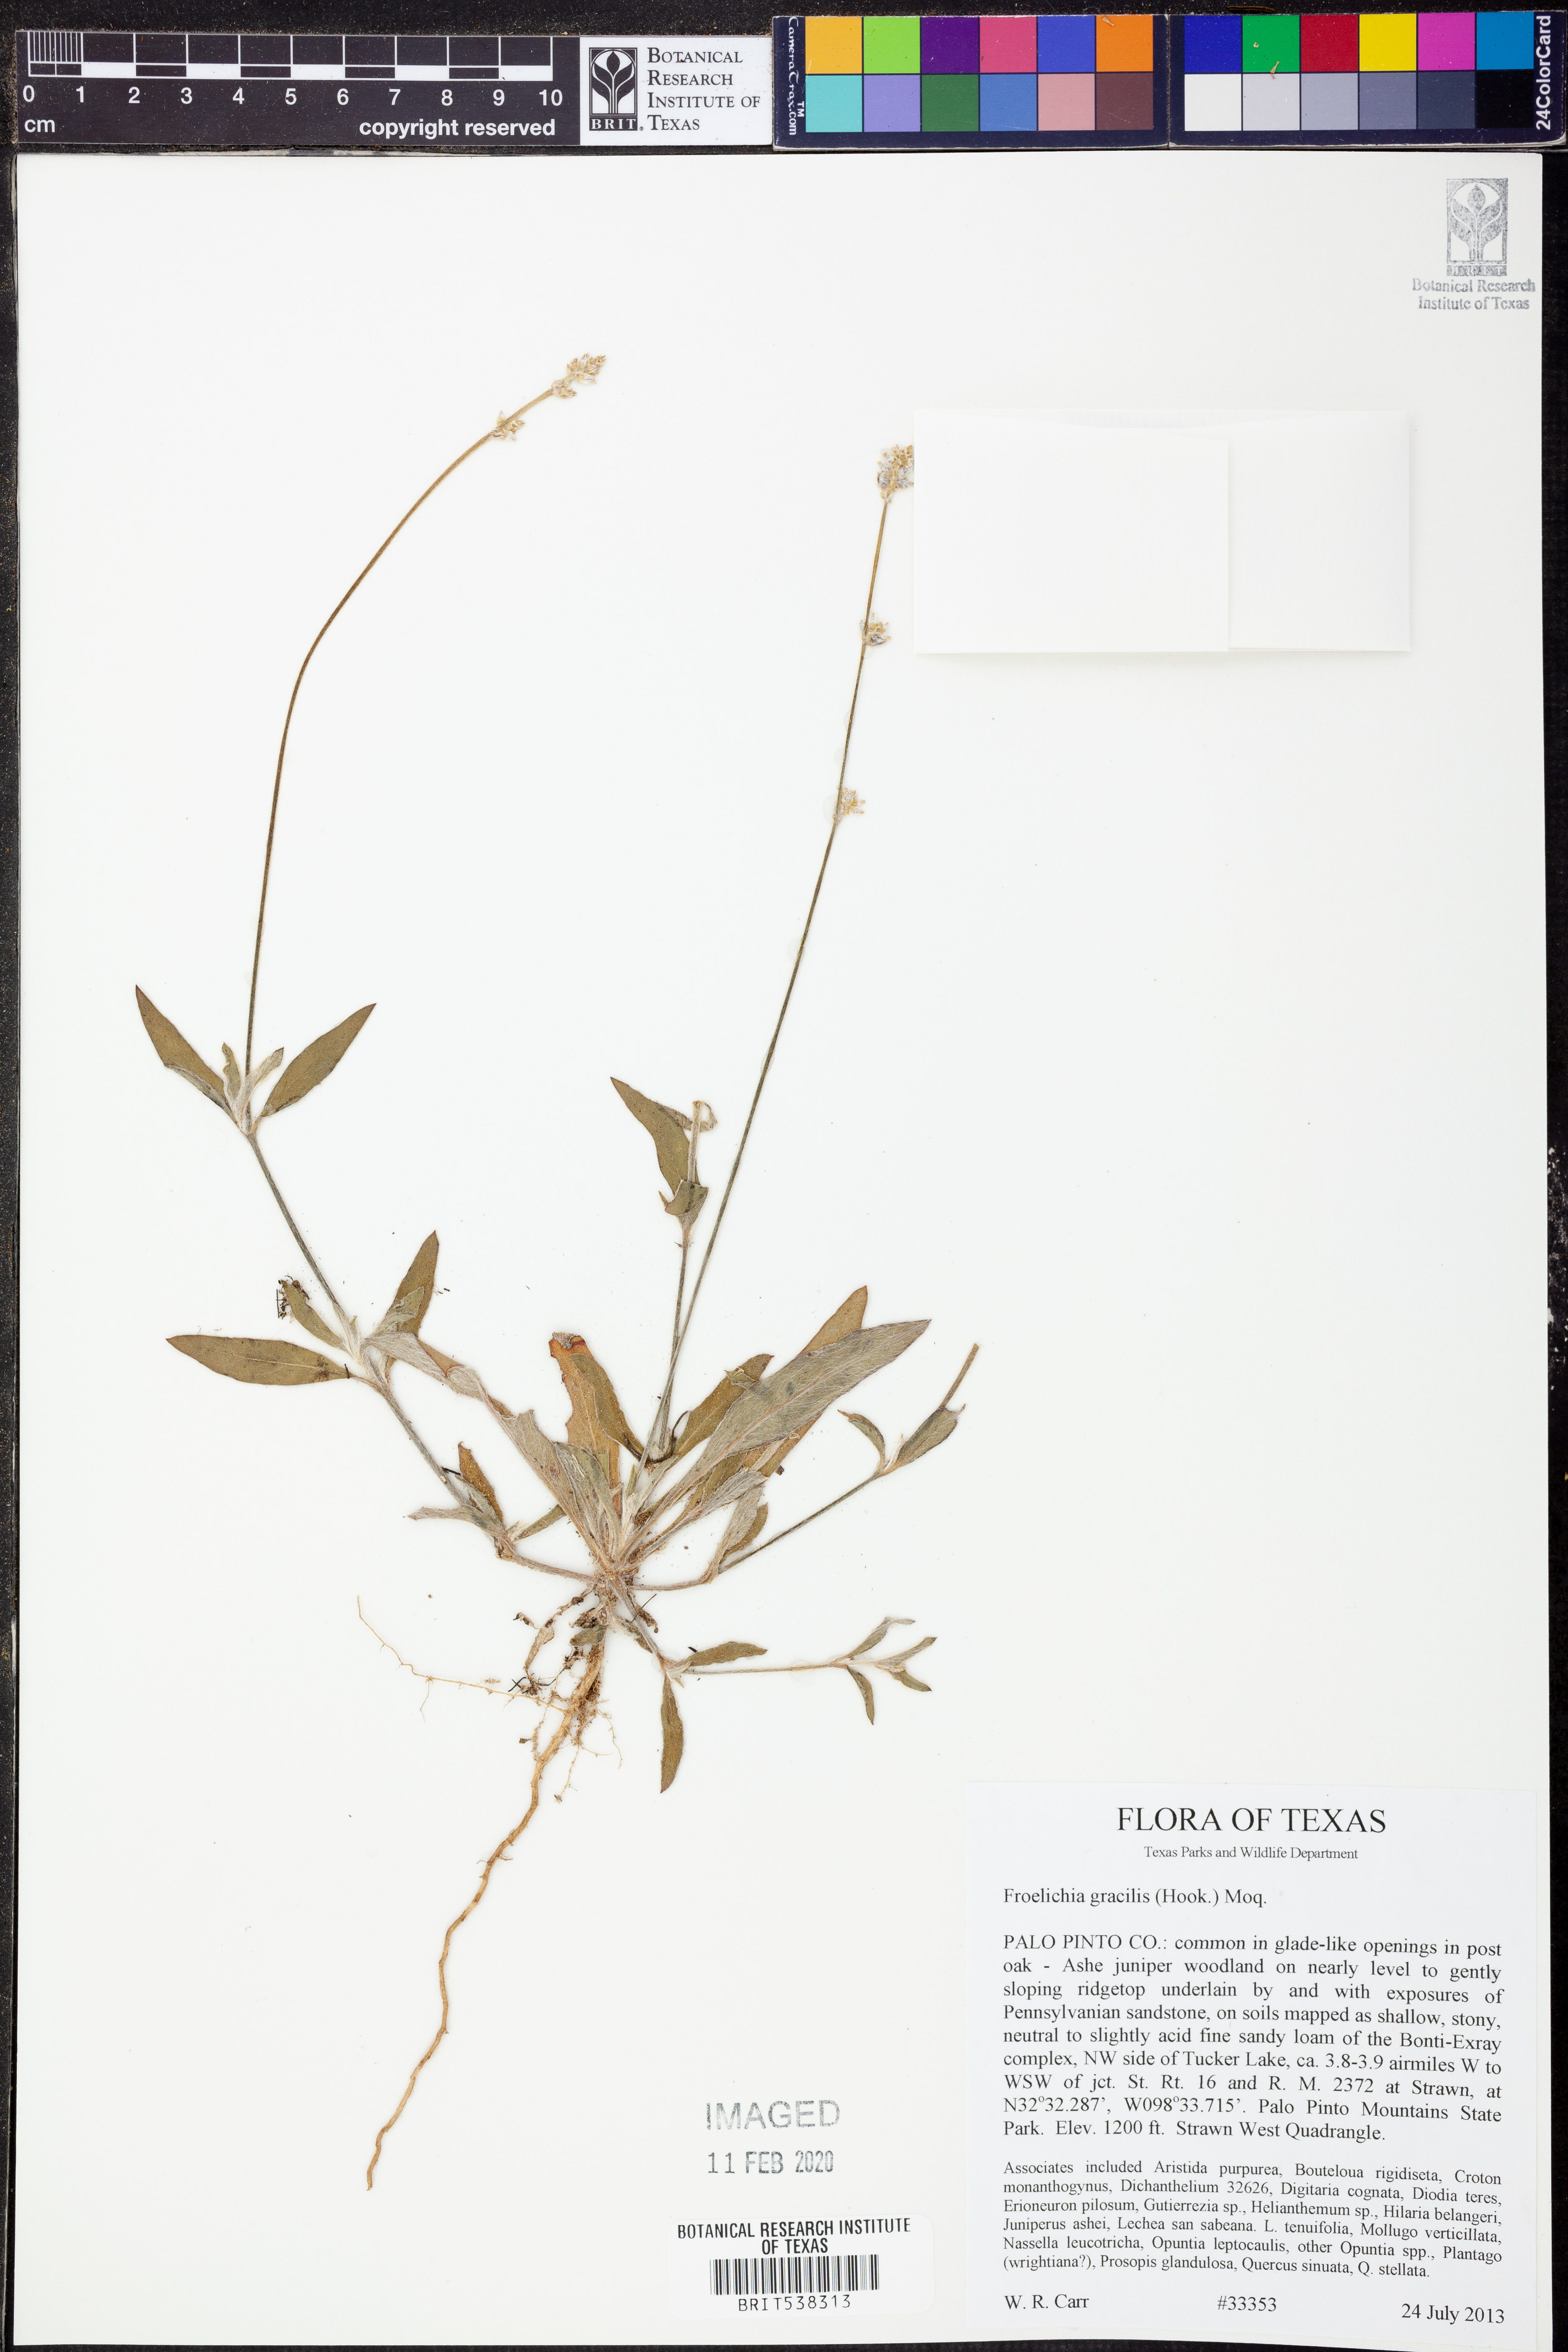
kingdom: Plantae
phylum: Tracheophyta
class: Magnoliopsida
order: Caryophyllales
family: Amaranthaceae
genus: Froelichia
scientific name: Froelichia gracilis
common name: Slender cottonweed
